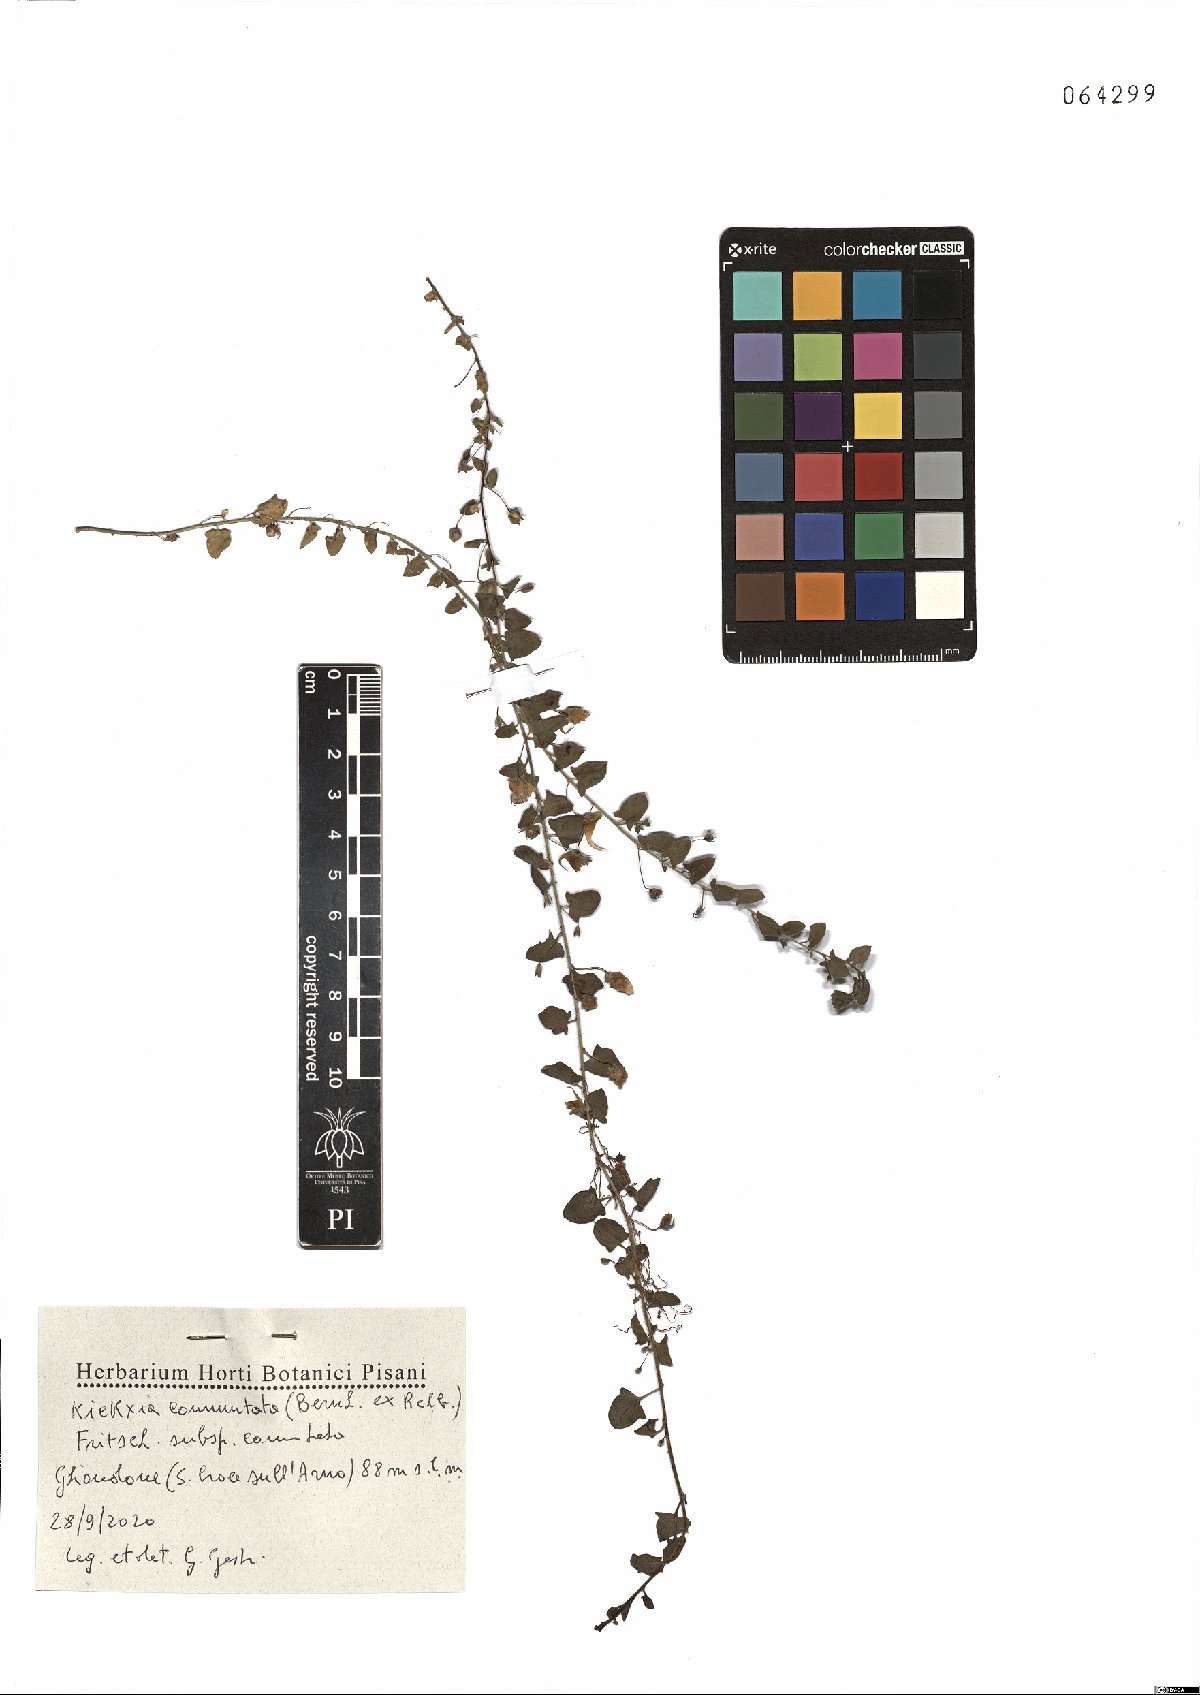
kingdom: Plantae
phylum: Tracheophyta
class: Magnoliopsida
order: Lamiales
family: Plantaginaceae
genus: Kickxia
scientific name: Kickxia commutata
